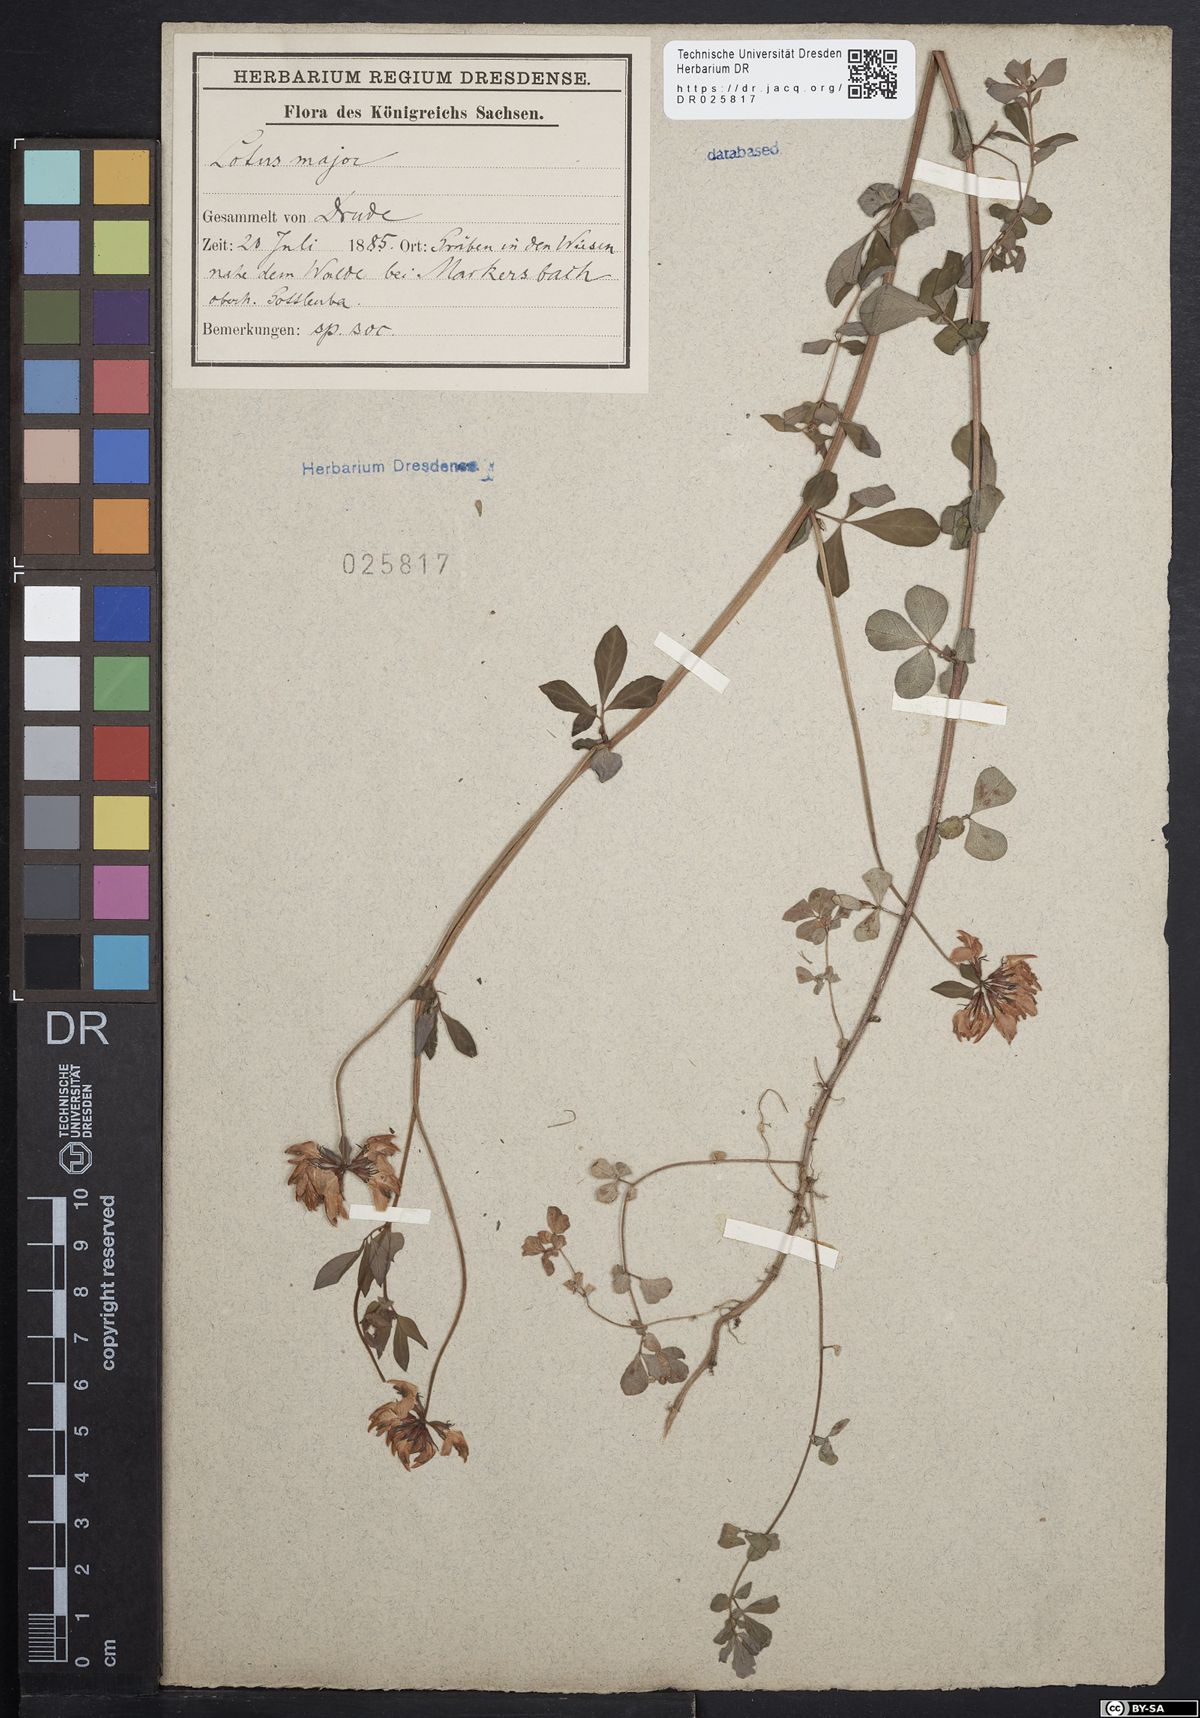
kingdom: Plantae
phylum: Tracheophyta
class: Magnoliopsida
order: Fabales
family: Fabaceae
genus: Lotus
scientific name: Lotus pedunculatus
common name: Greater birdsfoot-trefoil
